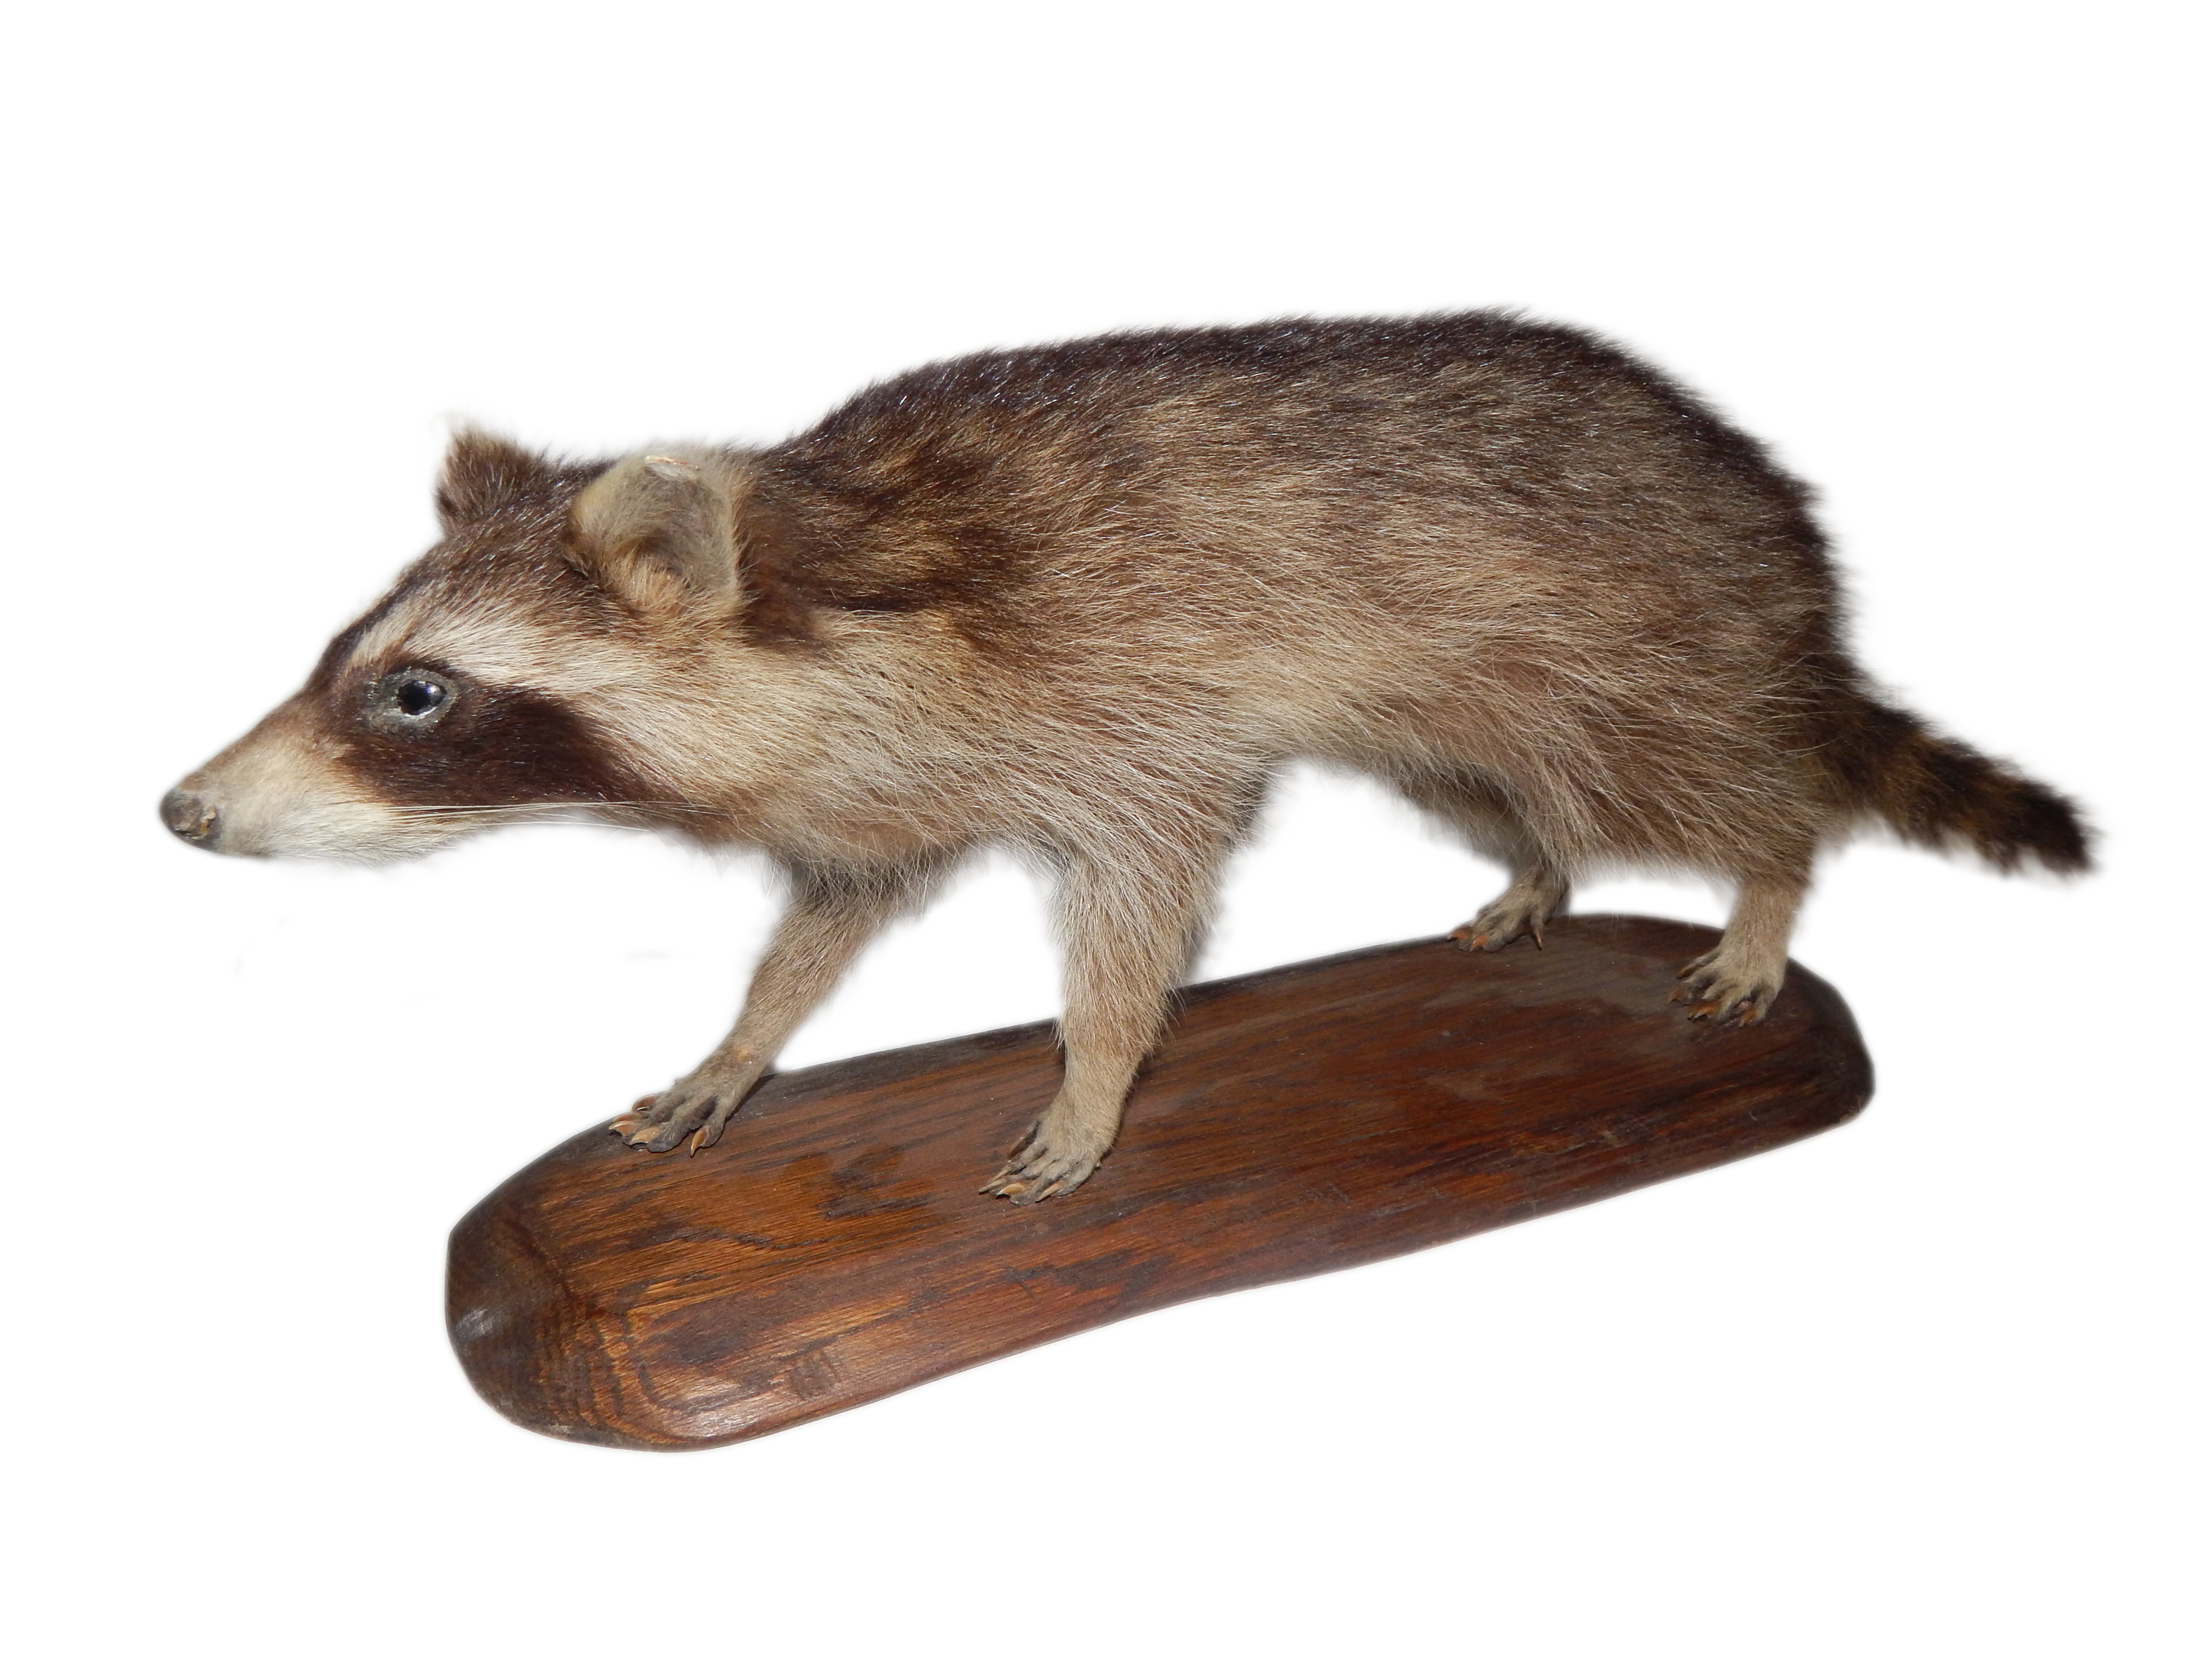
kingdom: Animalia
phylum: Chordata
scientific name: Chordata
